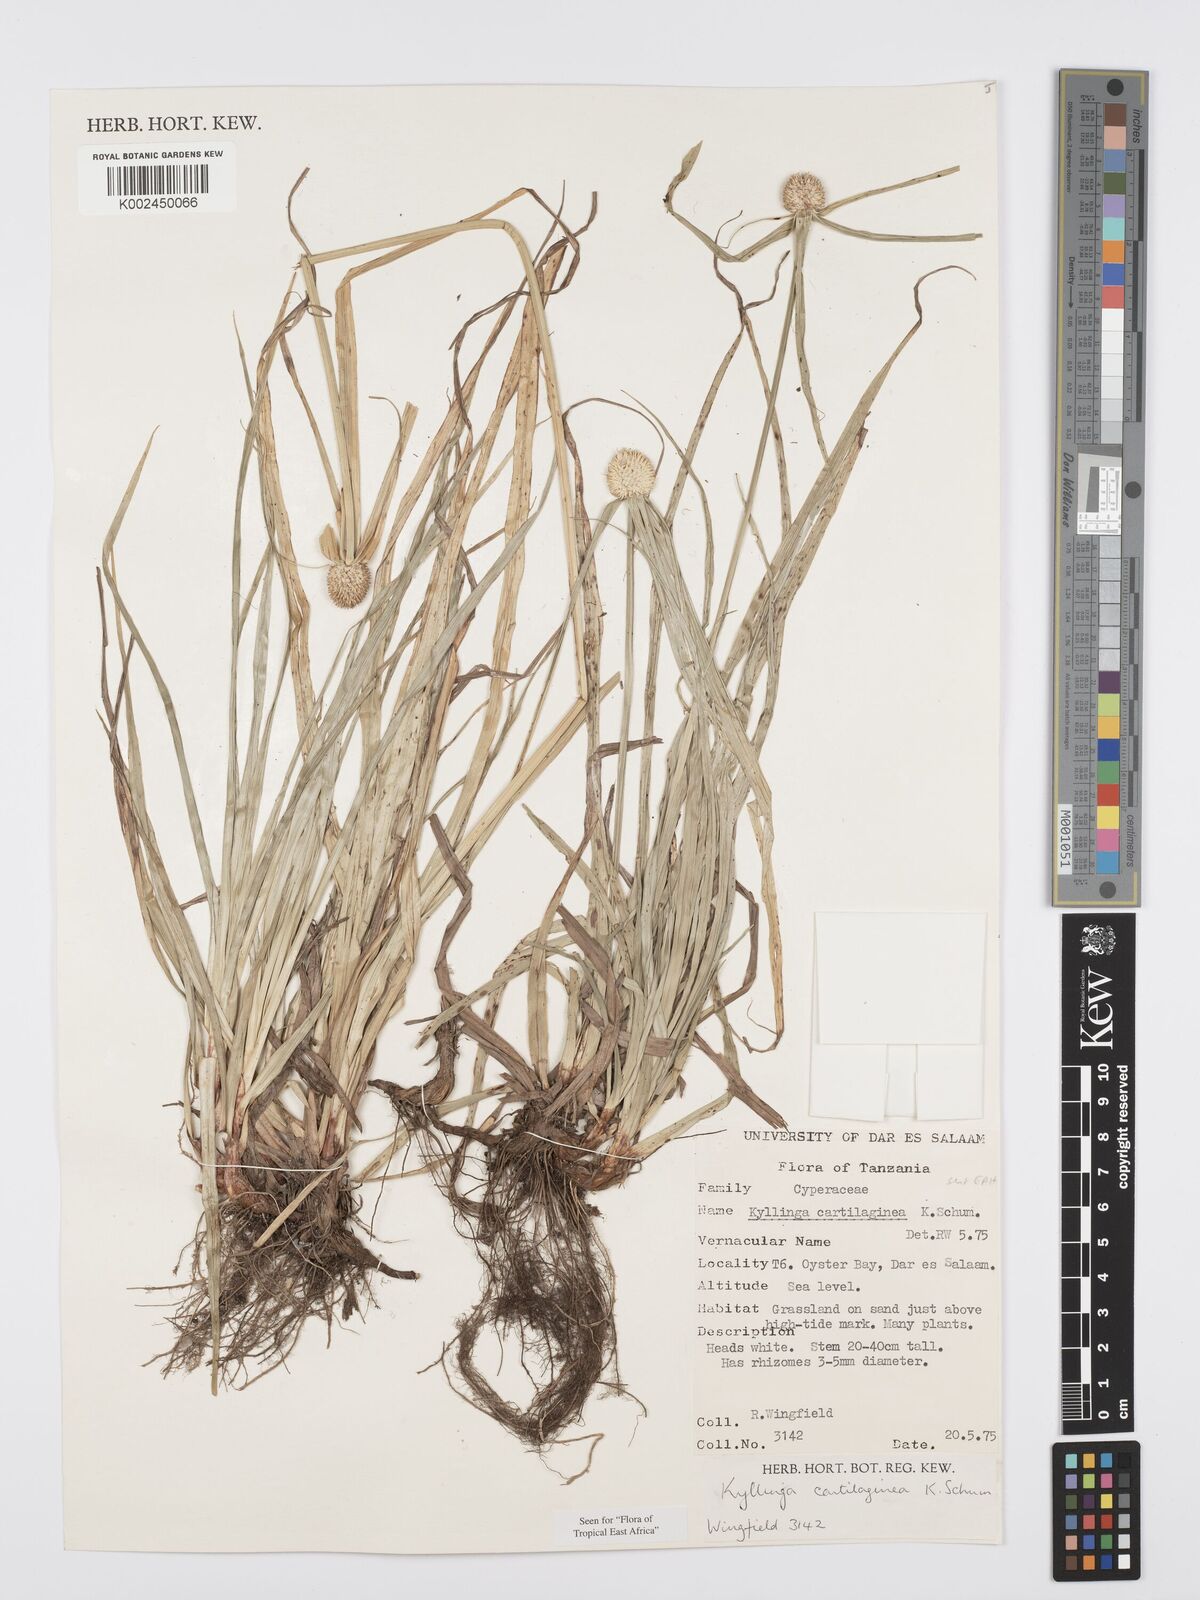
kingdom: Plantae
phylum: Tracheophyta
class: Liliopsida
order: Poales
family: Cyperaceae
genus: Cyperus
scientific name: Cyperus cartilagineus
